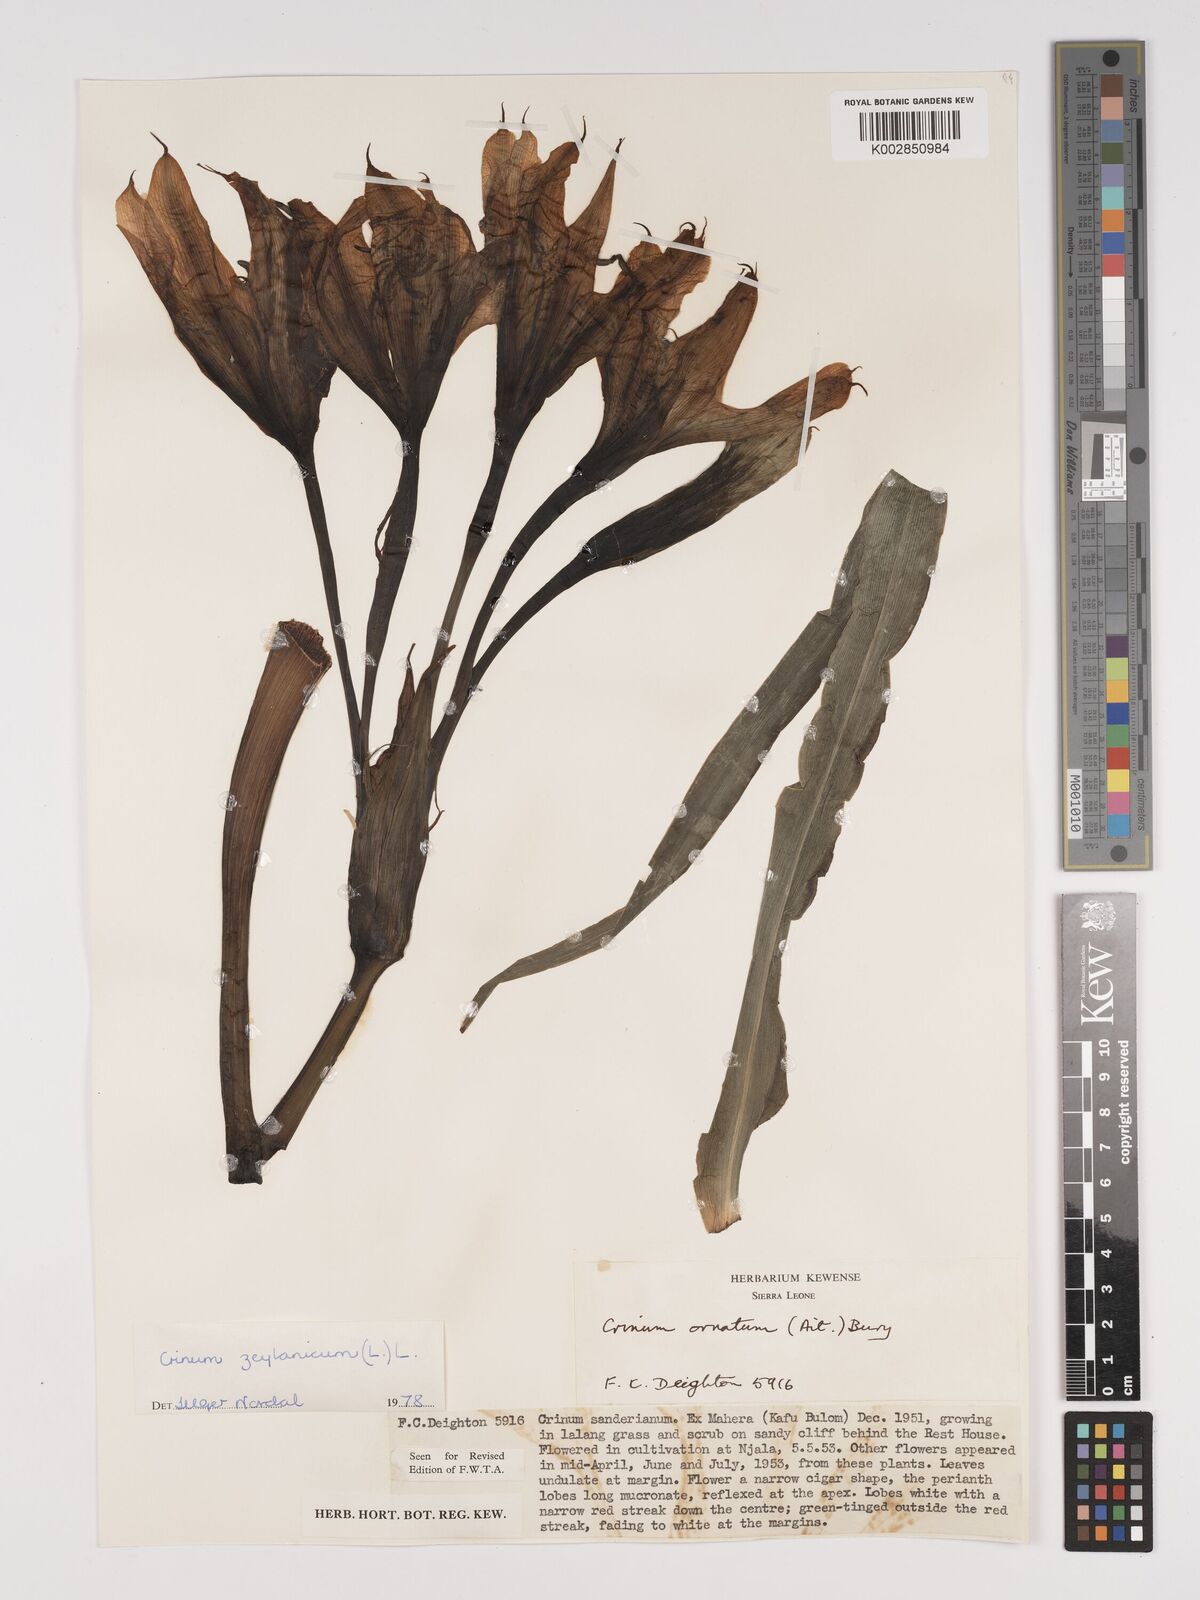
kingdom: Plantae
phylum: Tracheophyta
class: Liliopsida
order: Asparagales
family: Amaryllidaceae
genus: Crinum
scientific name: Crinum ornatum
